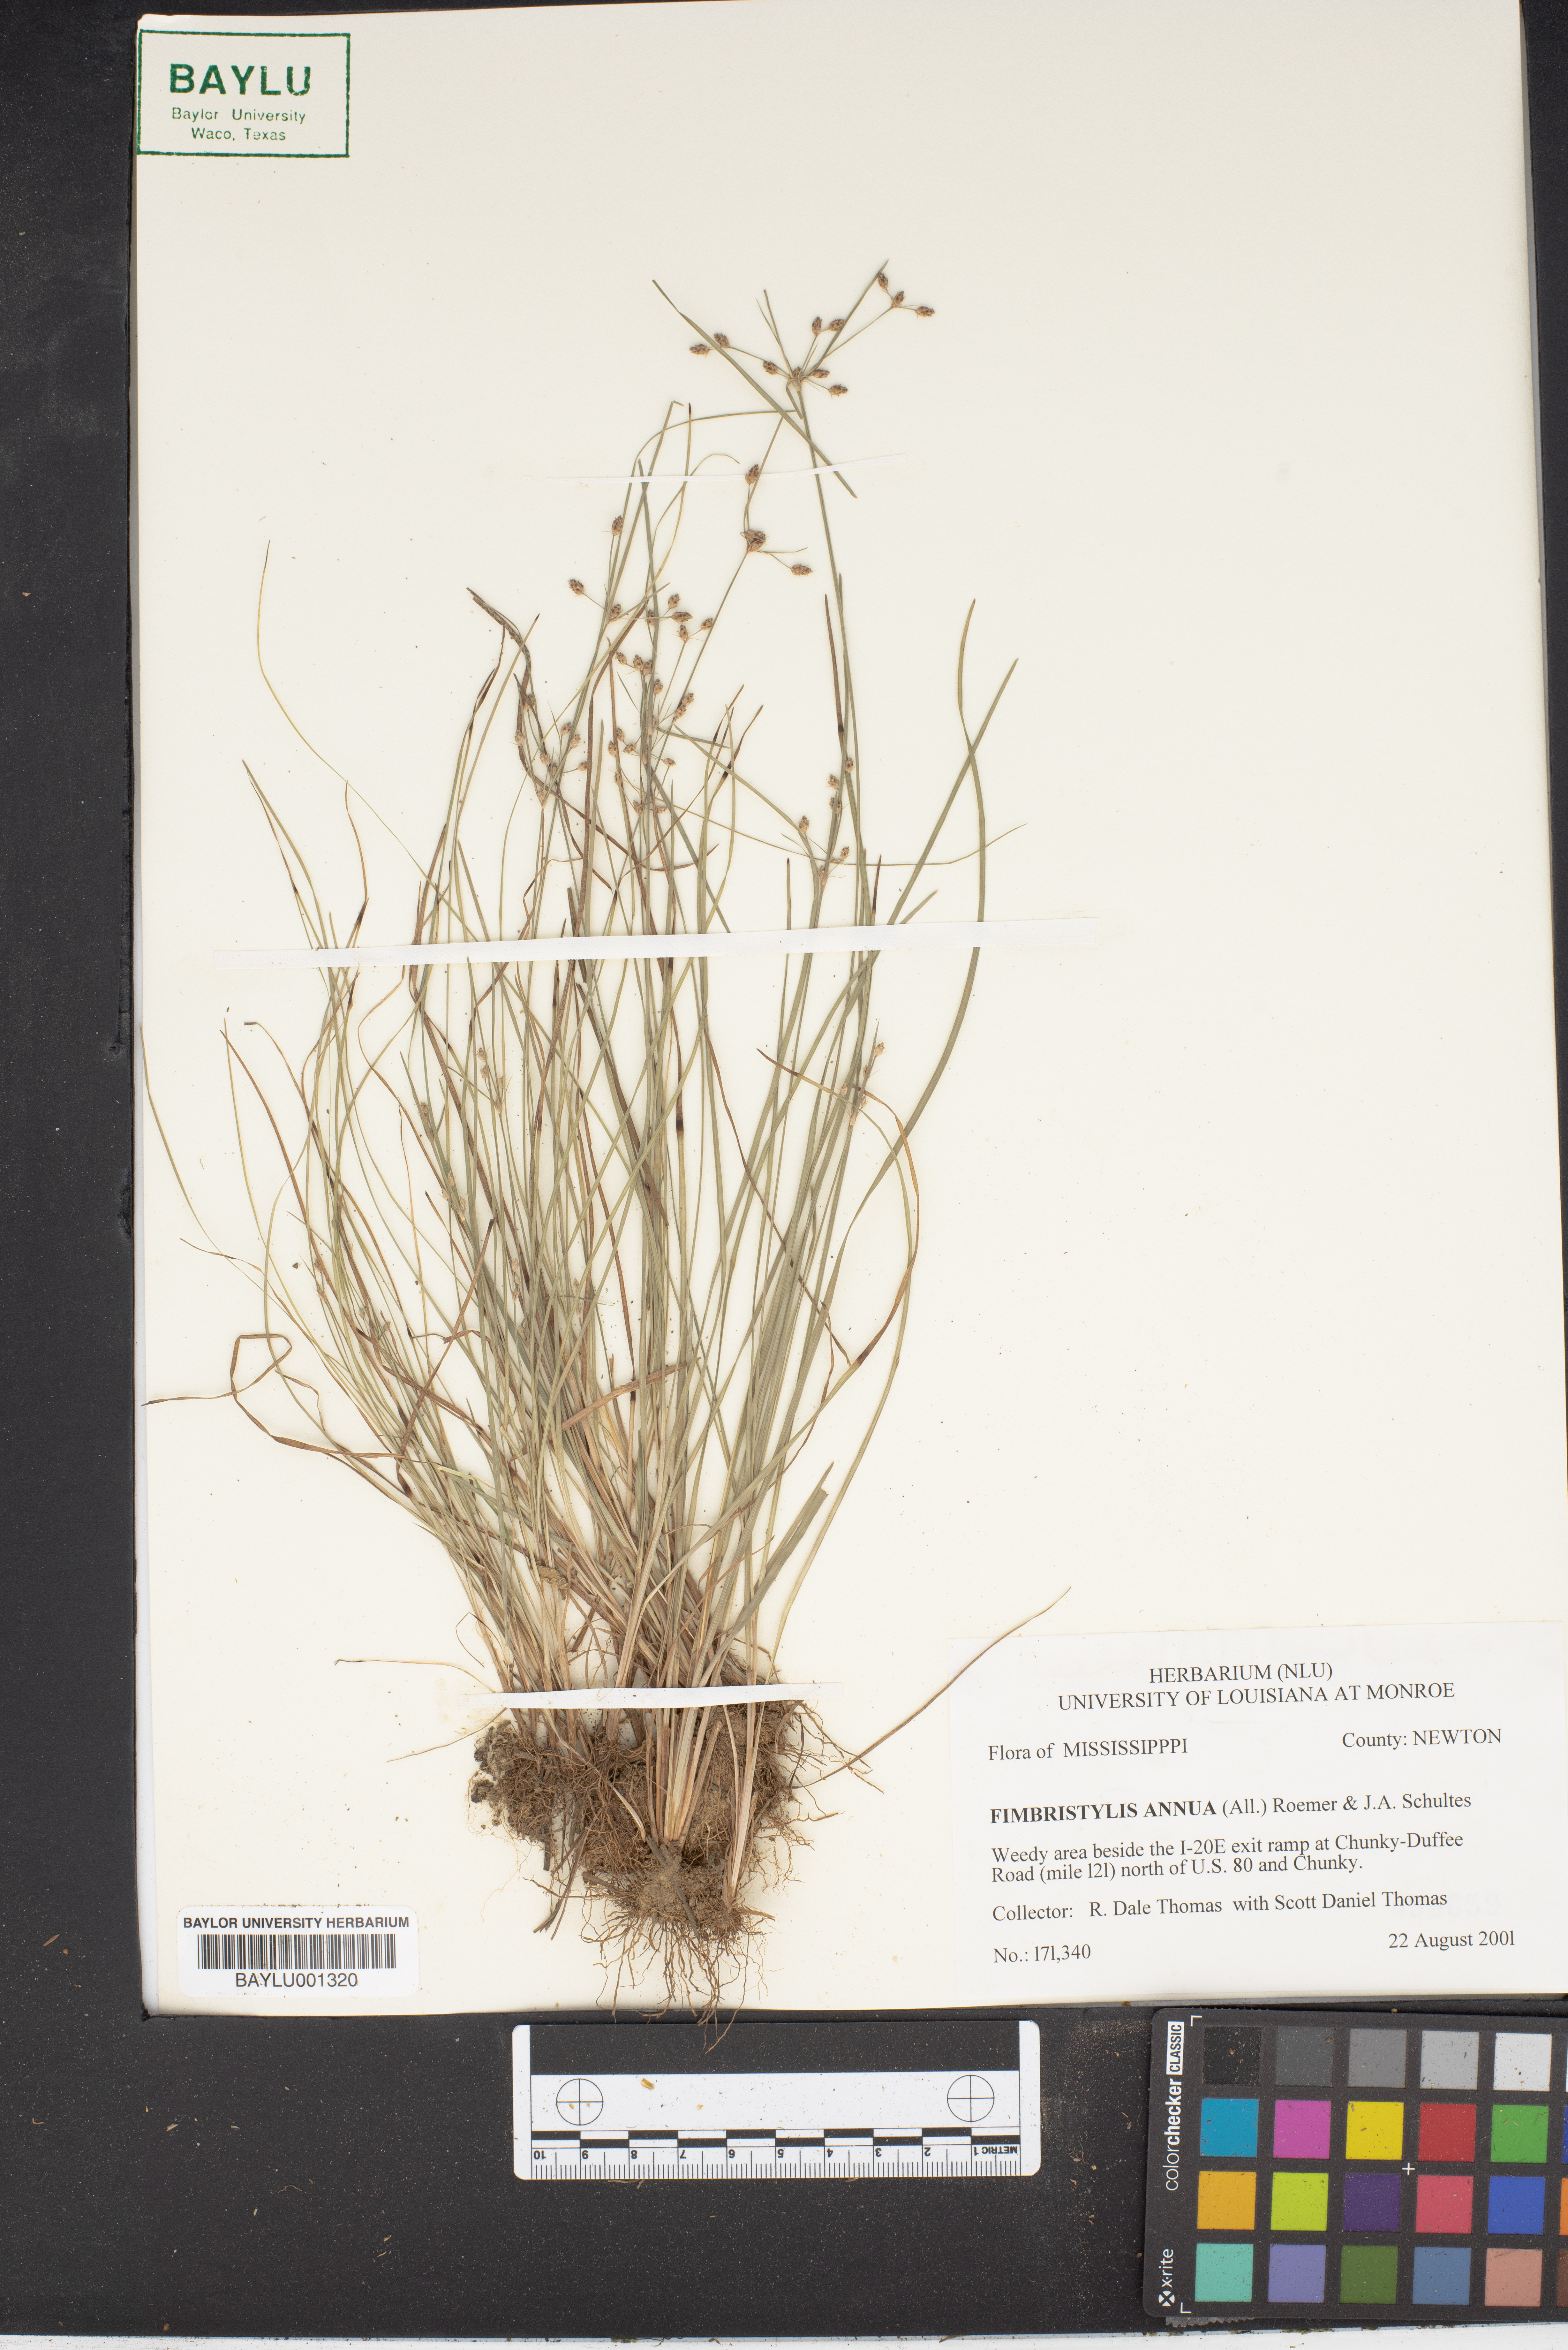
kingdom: Plantae
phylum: Tracheophyta
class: Liliopsida
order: Poales
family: Cyperaceae
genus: Fimbristylis
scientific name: Fimbristylis dichotoma
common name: Forked fimbry
